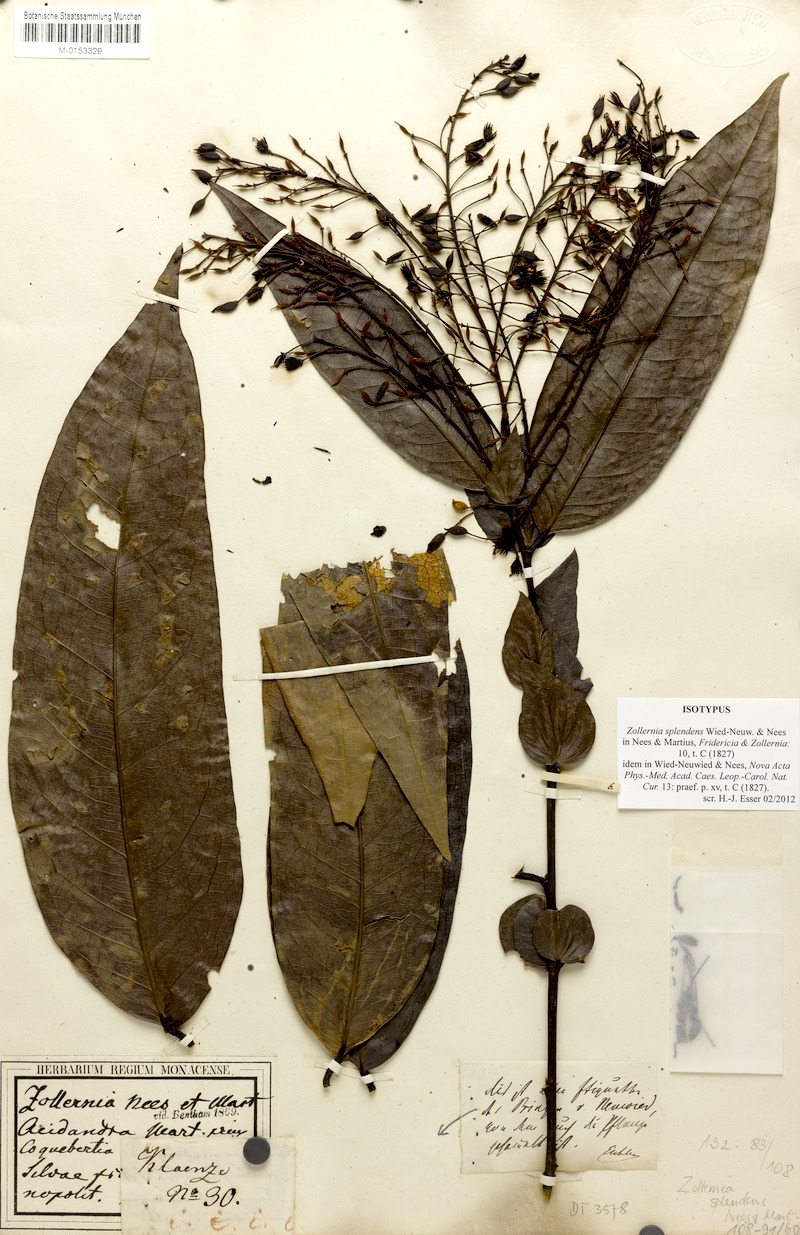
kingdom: Plantae
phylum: Tracheophyta
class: Magnoliopsida
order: Fabales
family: Fabaceae
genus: Zollernia
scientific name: Zollernia glabra
